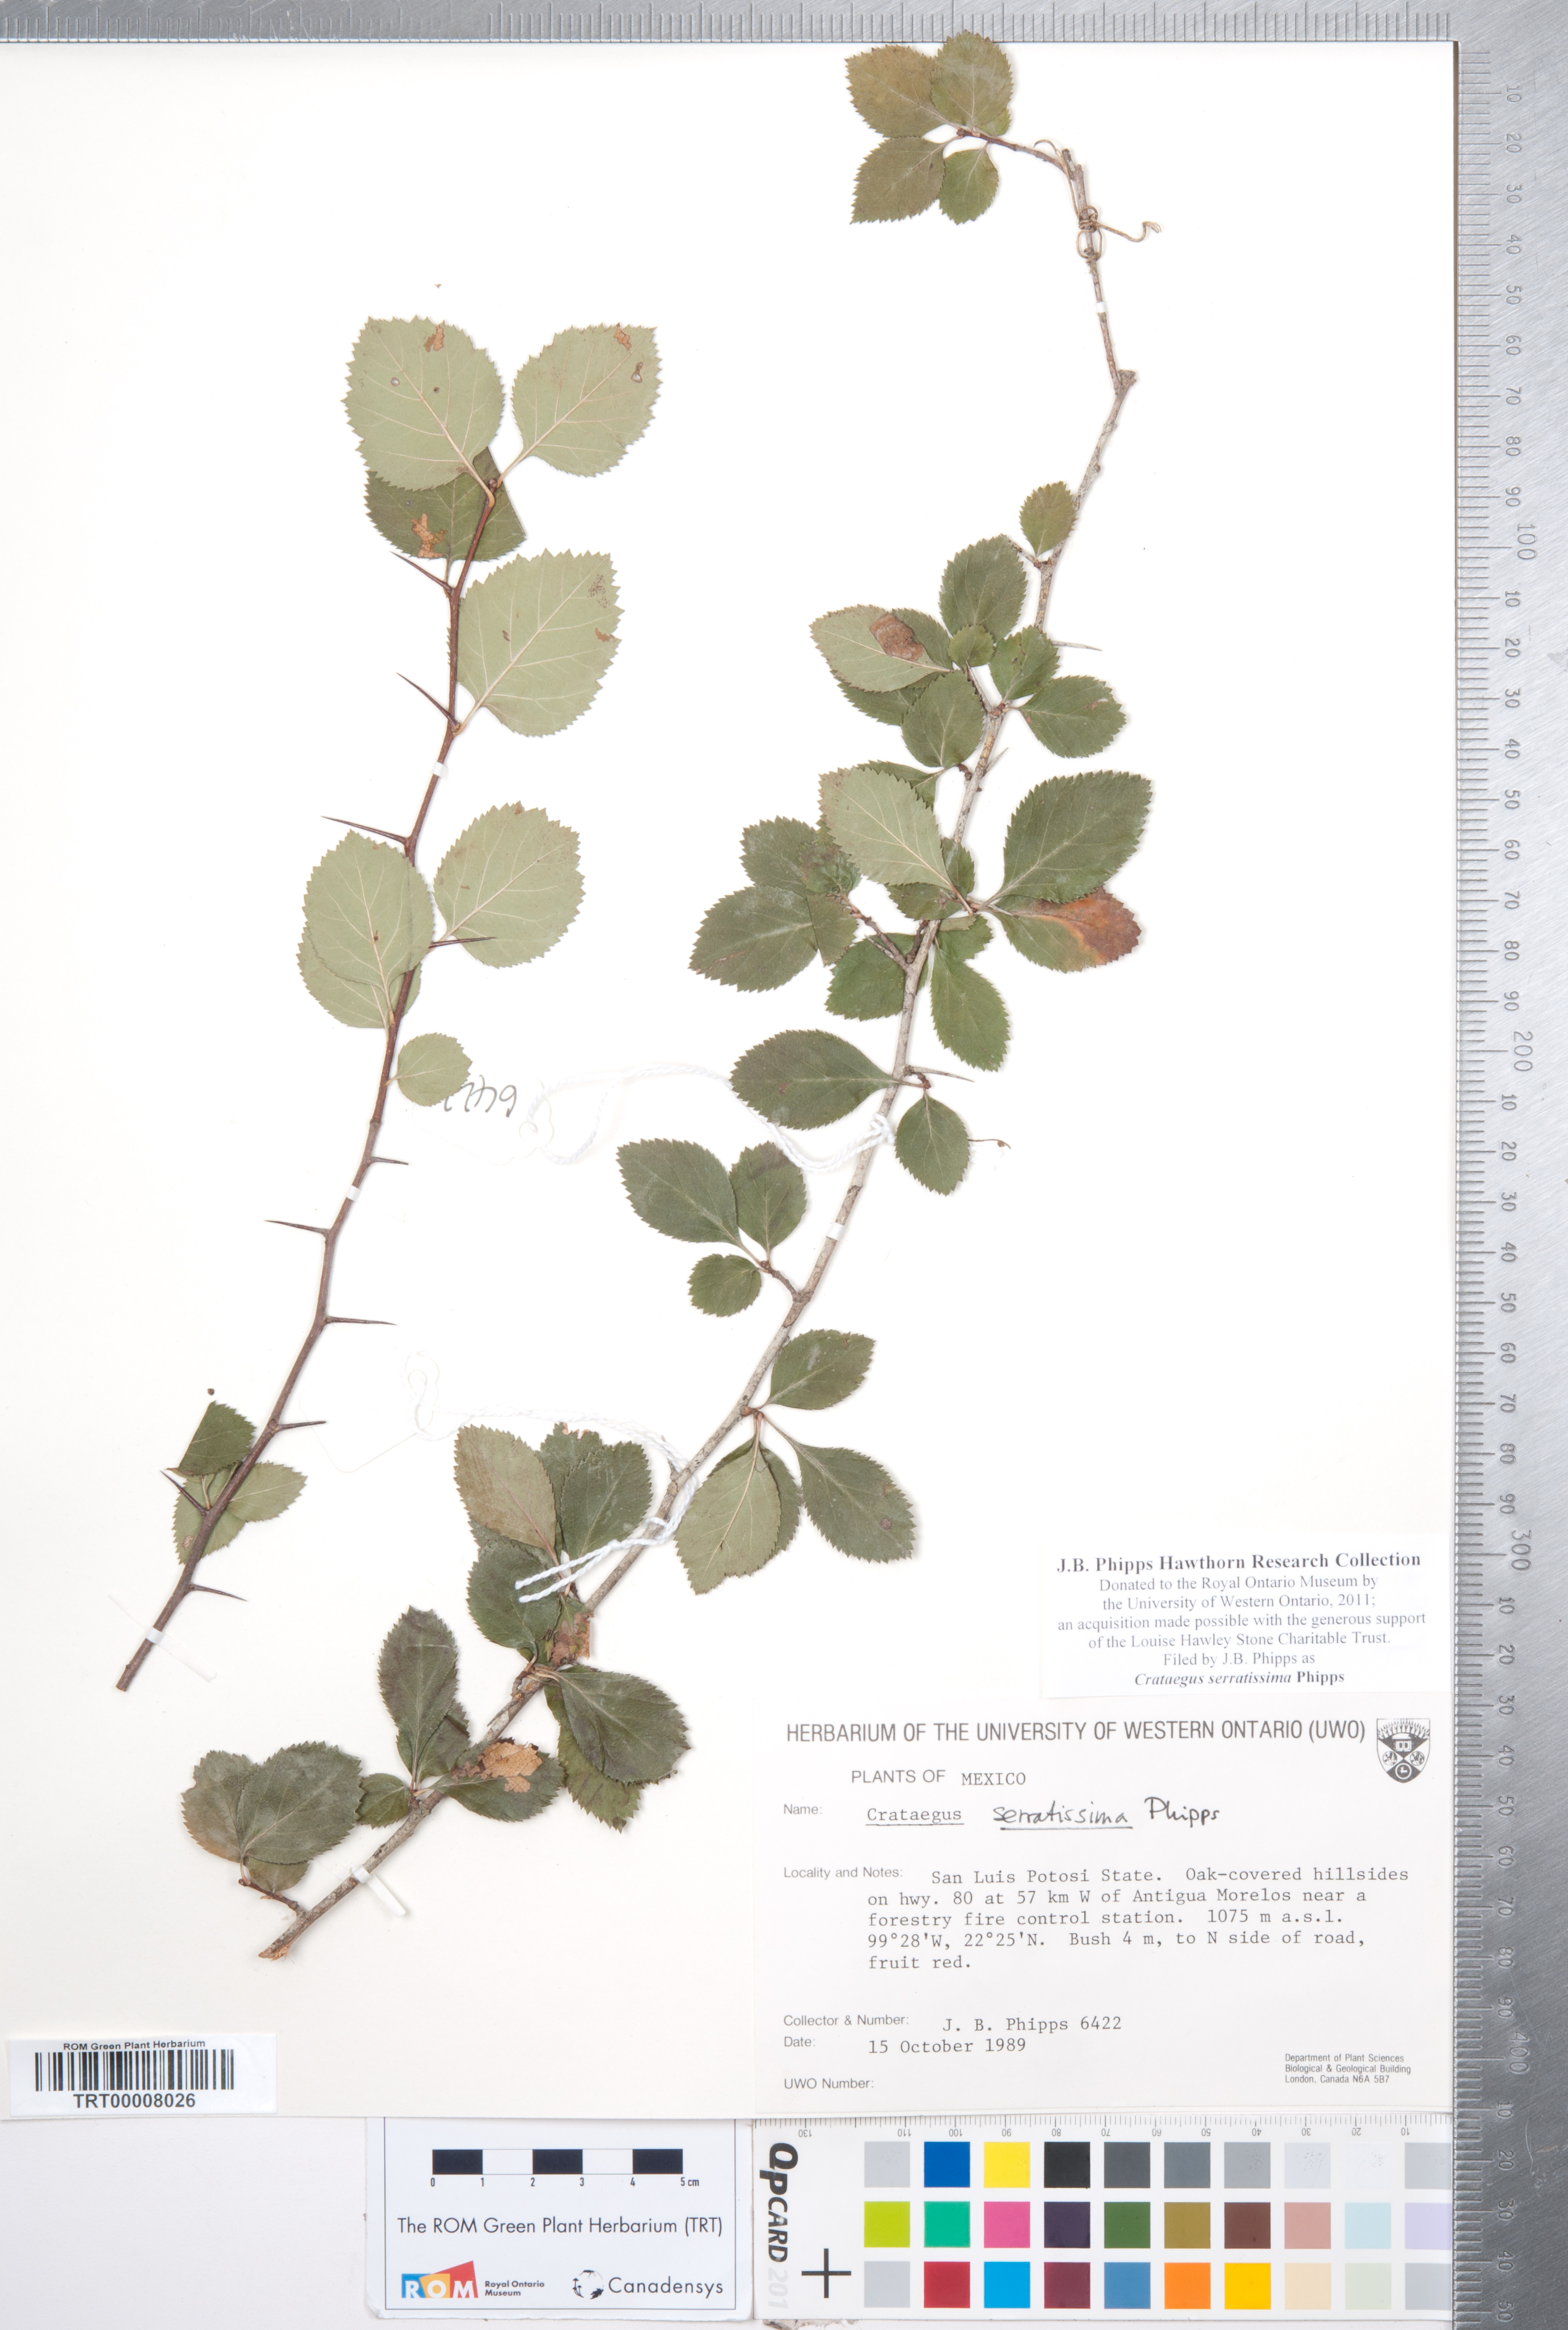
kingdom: Plantae
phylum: Tracheophyta
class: Magnoliopsida
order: Rosales
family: Rosaceae
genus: Crataegus
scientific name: Crataegus serratissima
